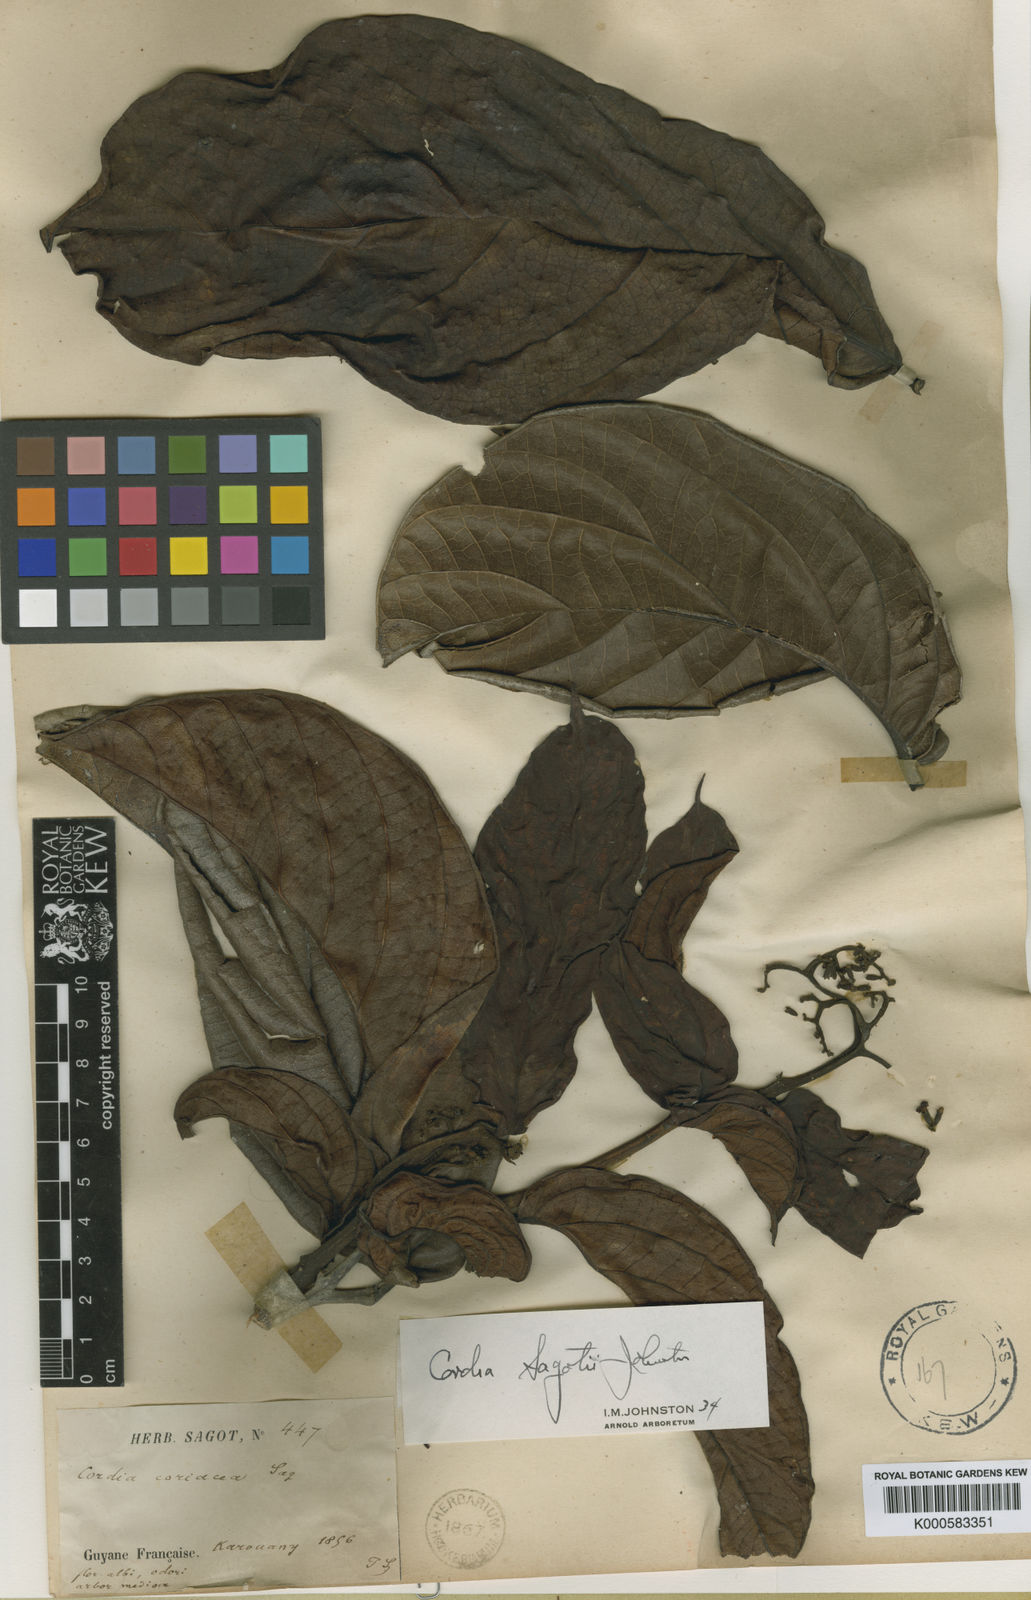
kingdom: Plantae
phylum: Tracheophyta
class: Magnoliopsida
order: Boraginales
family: Cordiaceae
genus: Cordia
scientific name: Cordia sagotii
